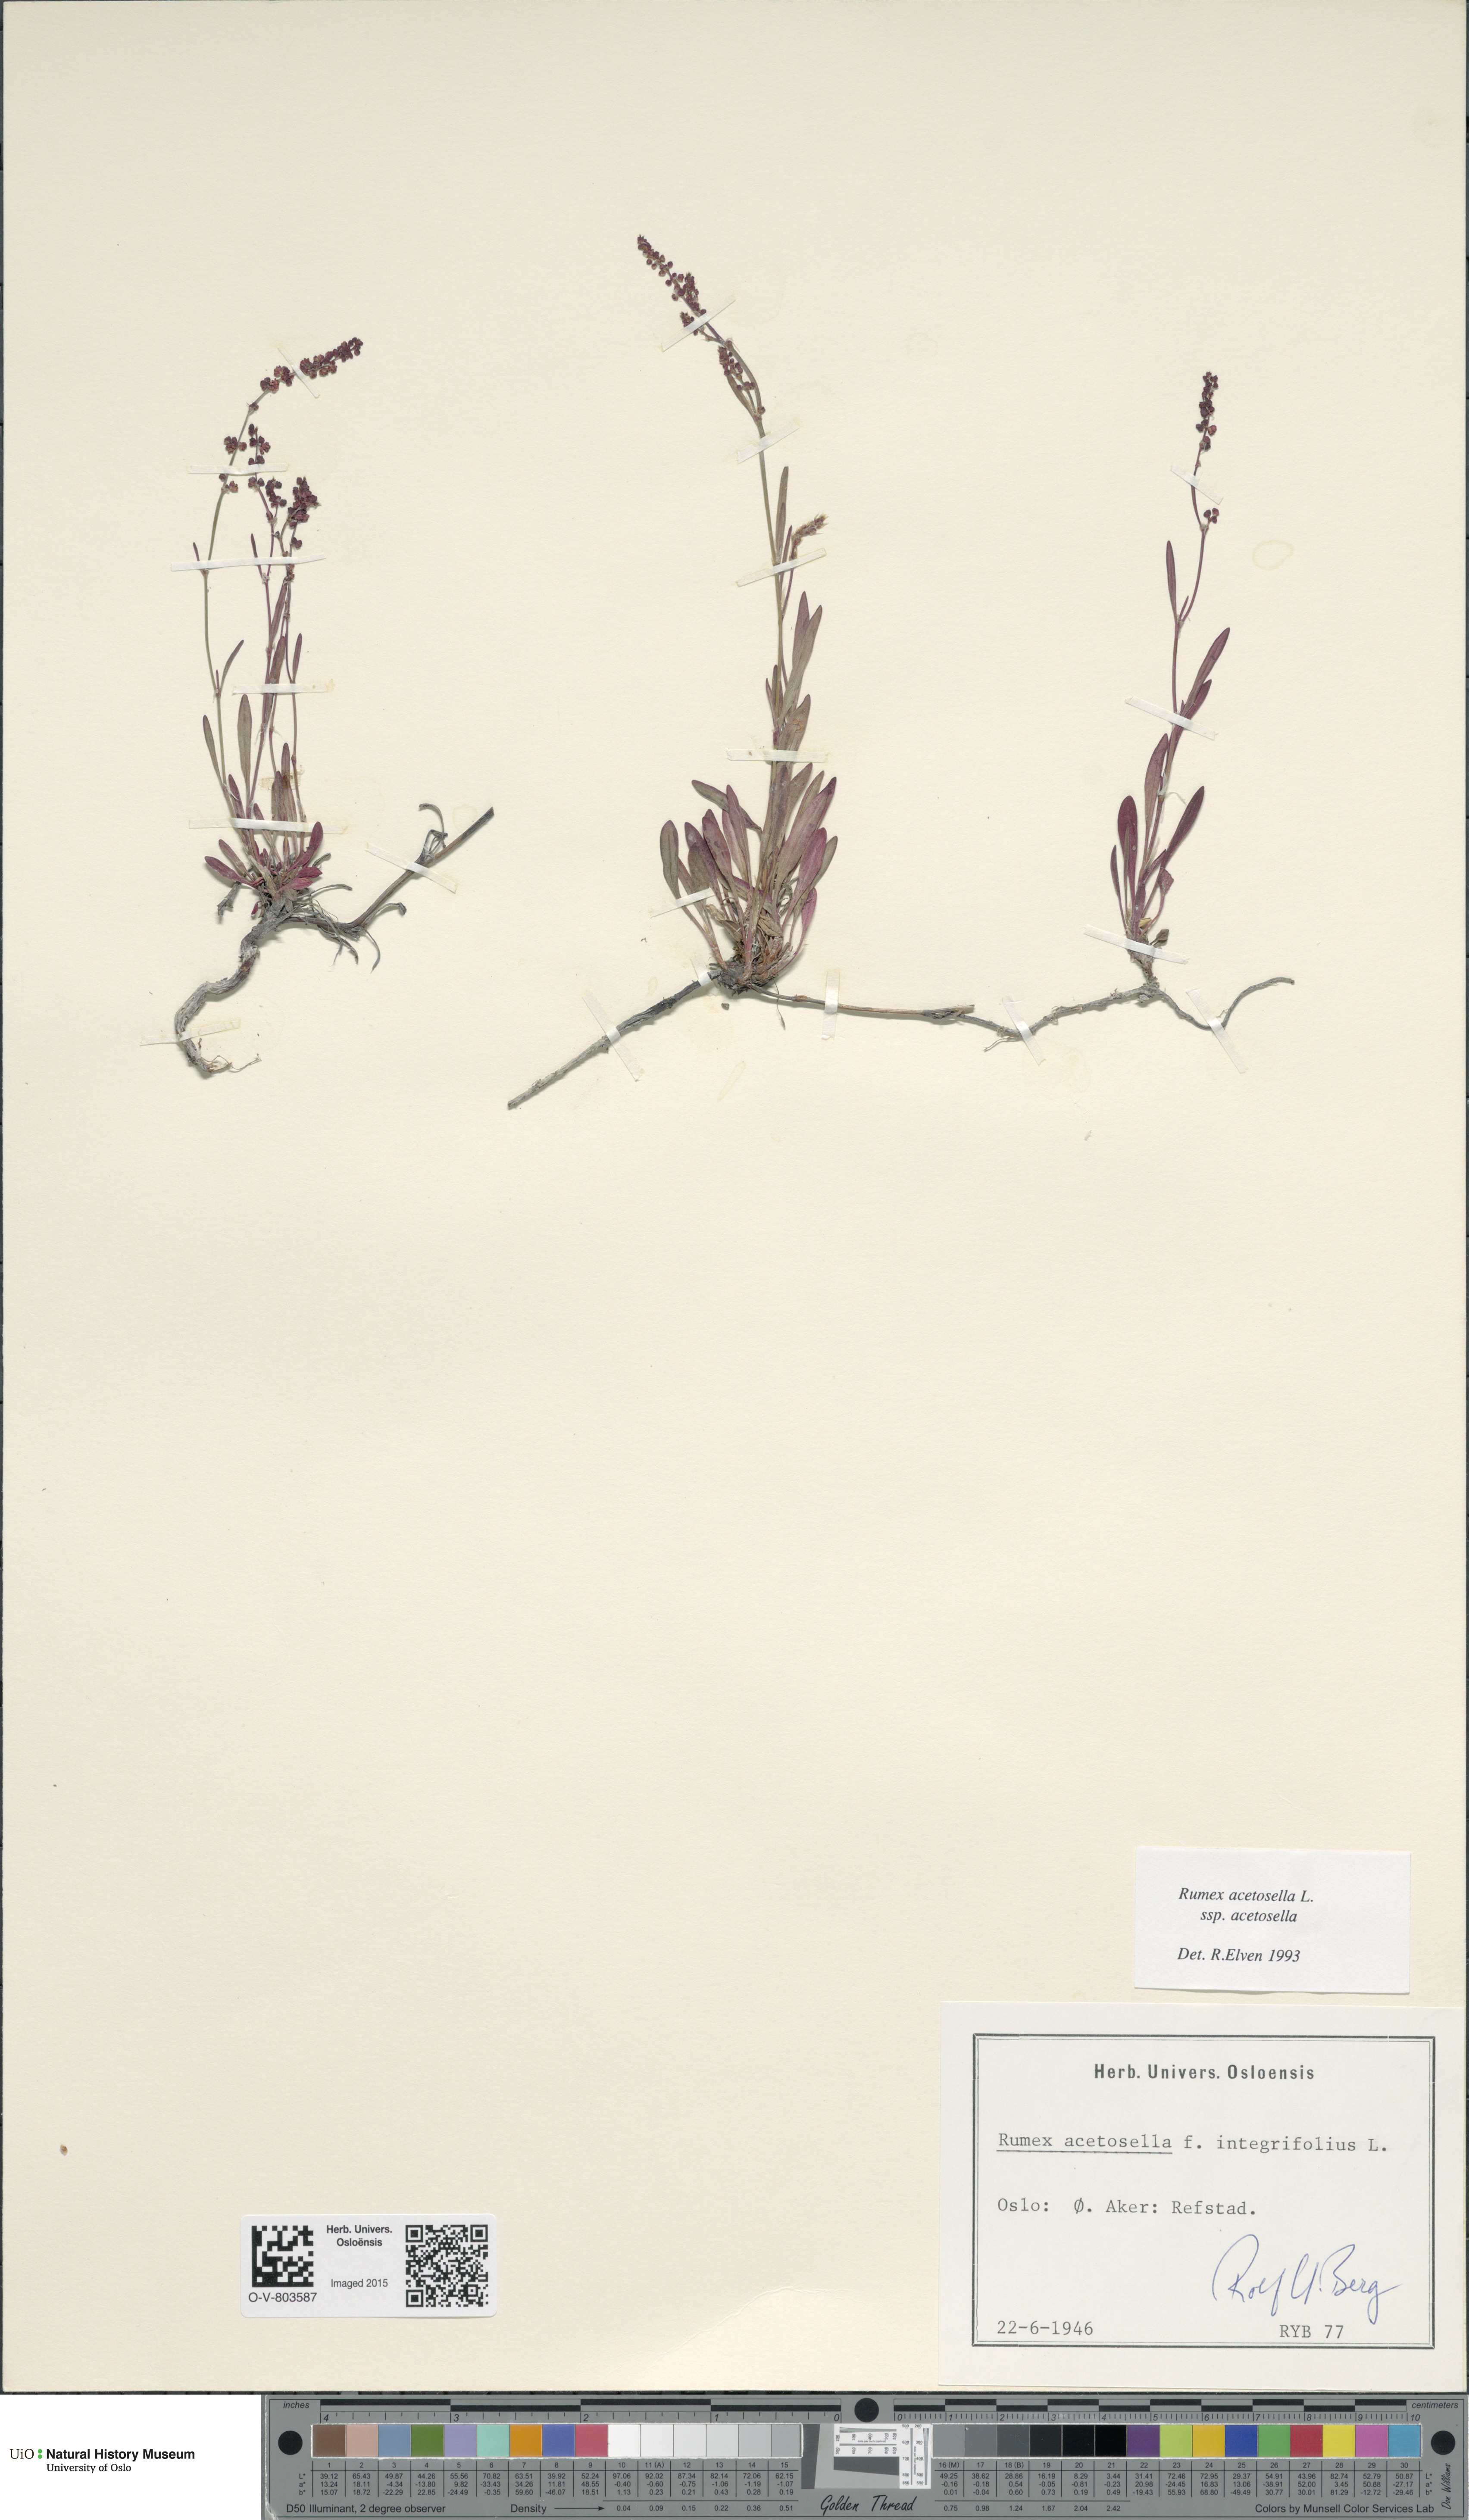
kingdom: Plantae
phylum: Tracheophyta
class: Magnoliopsida
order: Caryophyllales
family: Polygonaceae
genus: Rumex
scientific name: Rumex acetosella
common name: Common sheep sorrel
